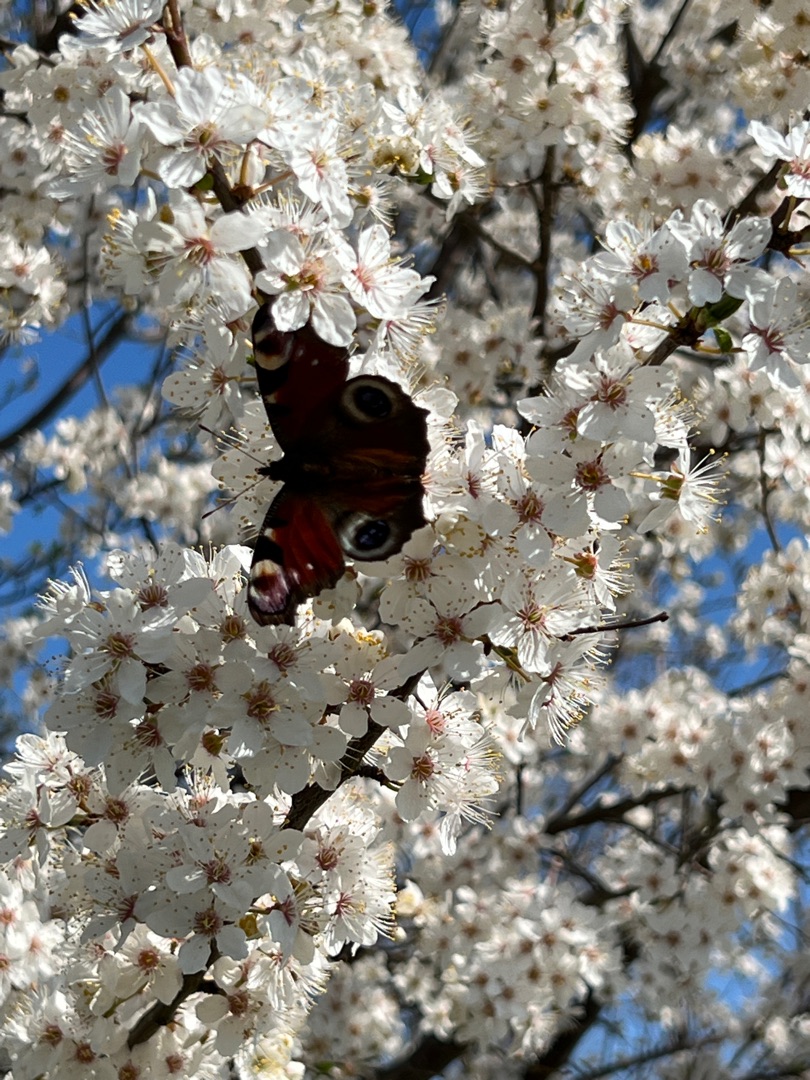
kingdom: Animalia
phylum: Arthropoda
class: Insecta
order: Lepidoptera
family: Nymphalidae
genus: Aglais
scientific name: Aglais io
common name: Dagpåfugleøje
